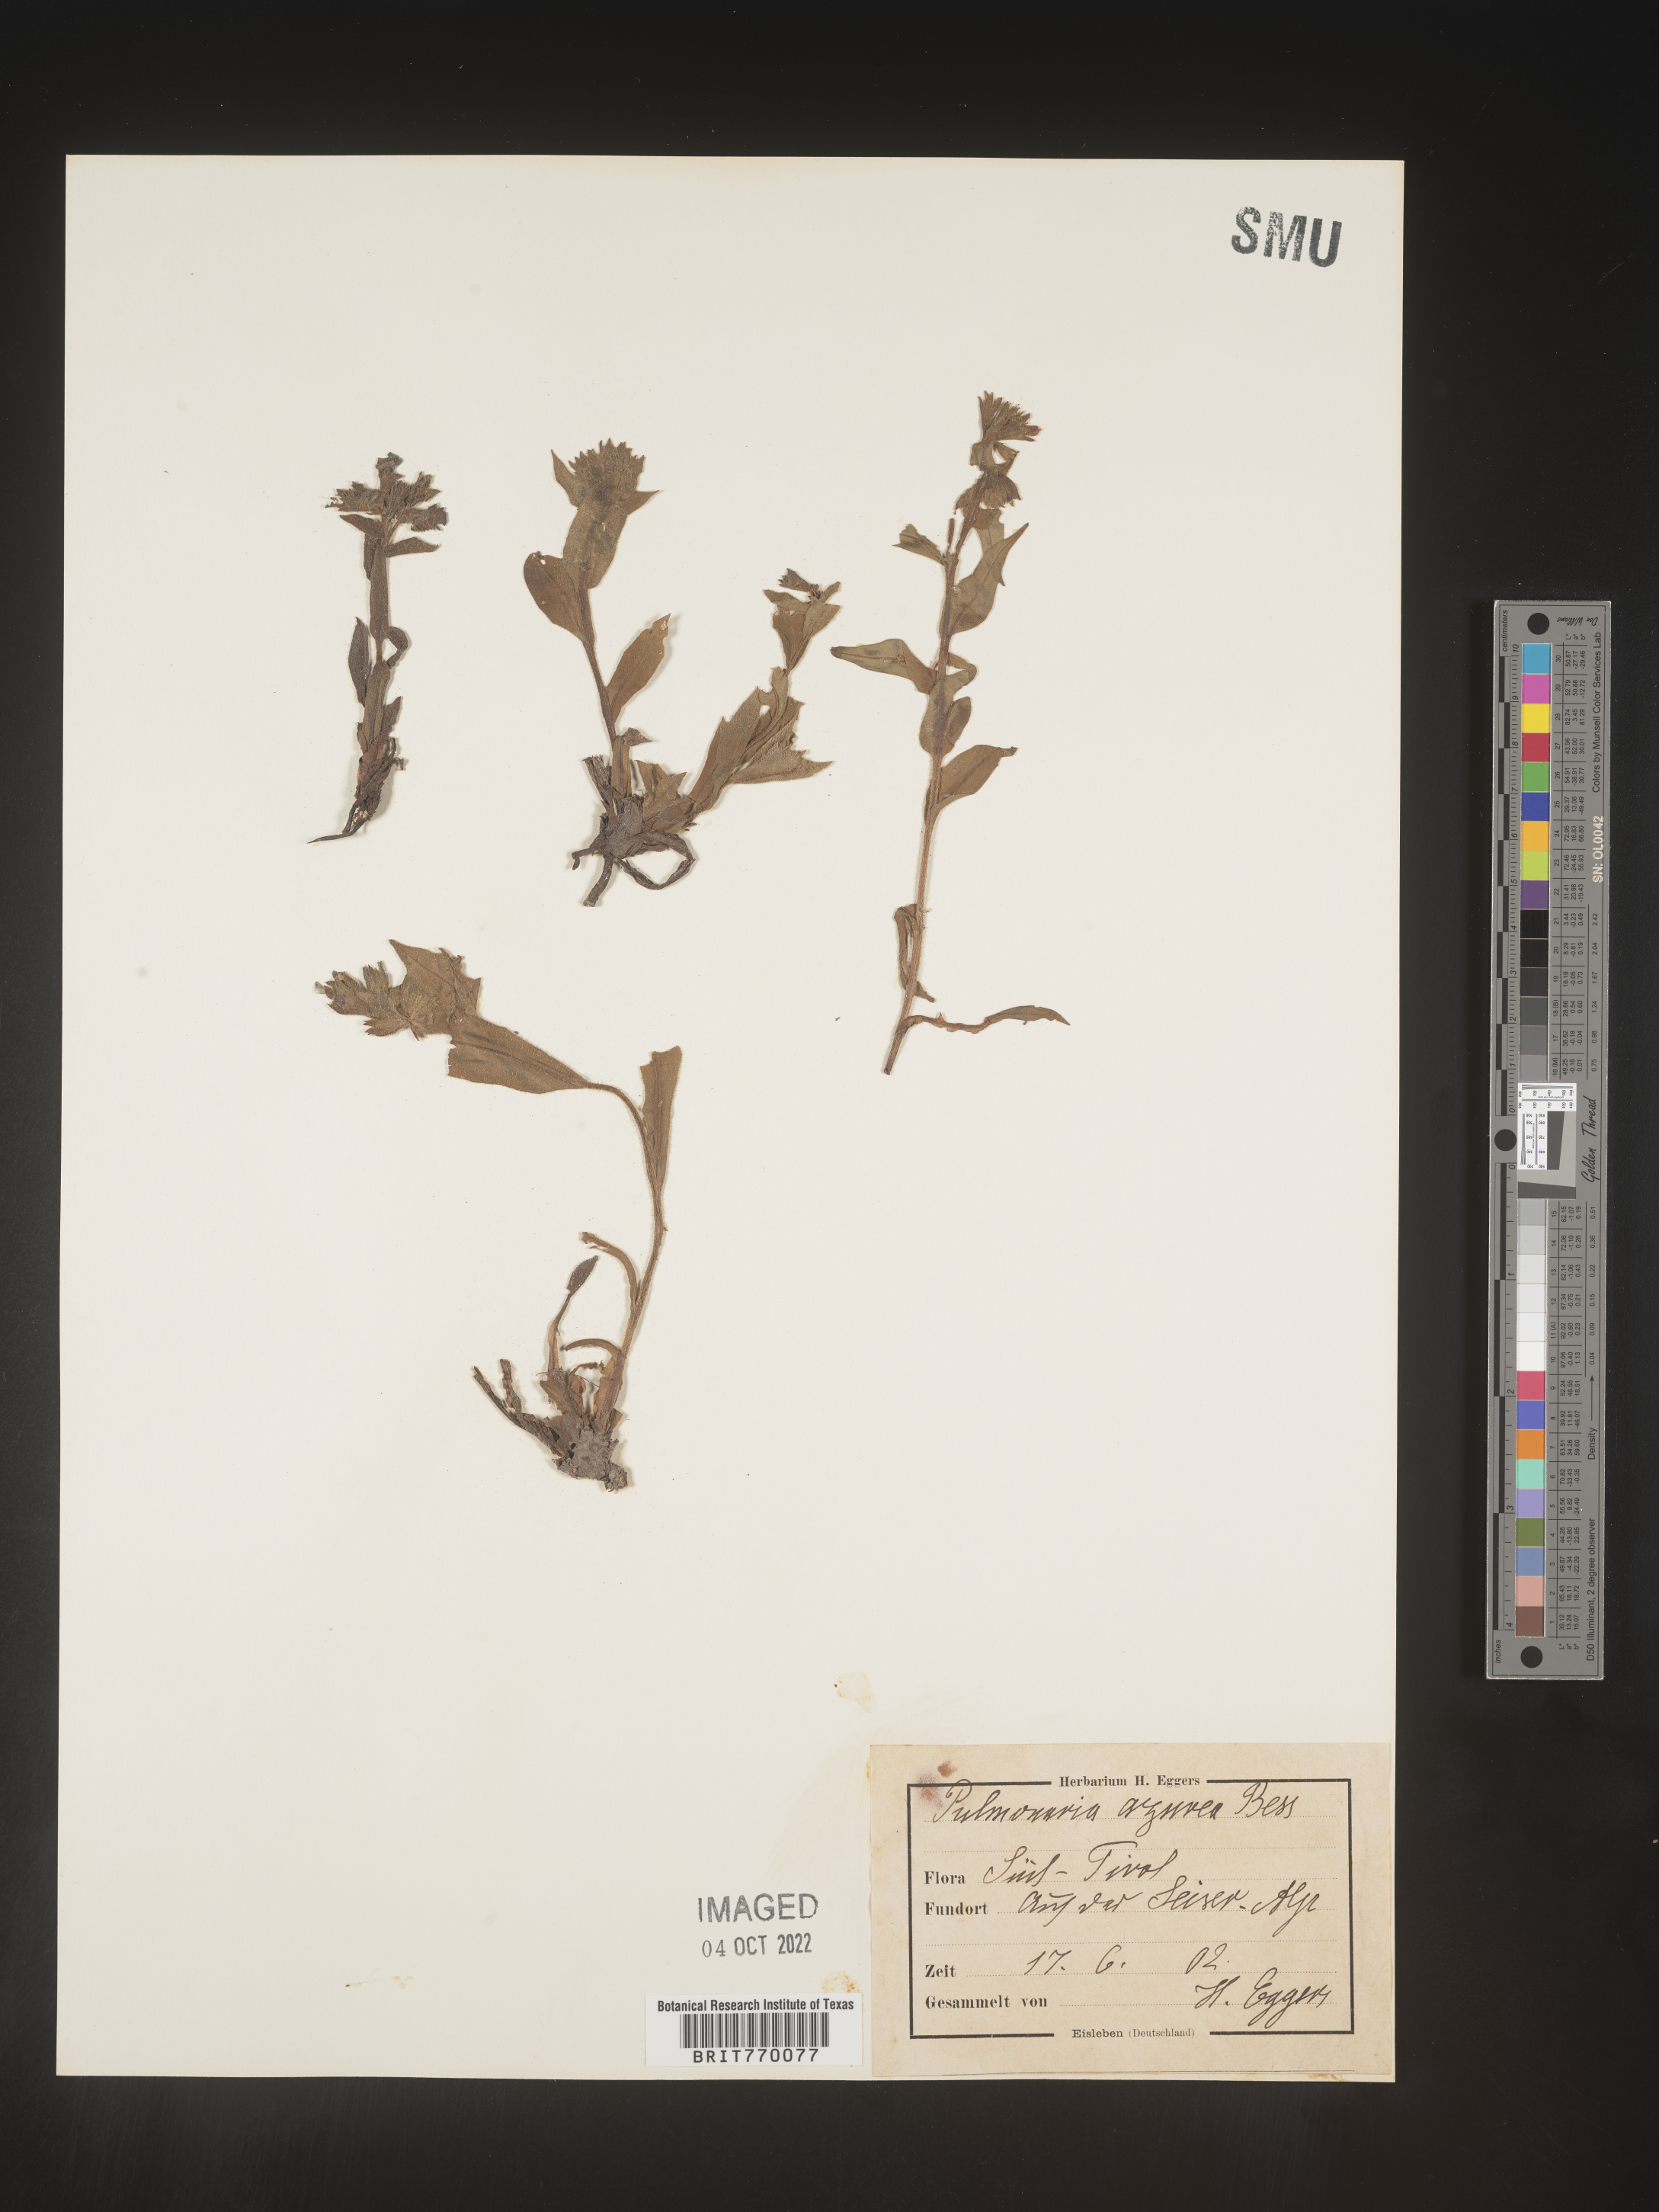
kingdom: Plantae
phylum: Tracheophyta
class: Magnoliopsida
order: Boraginales
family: Boraginaceae
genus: Pulmonaria
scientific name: Pulmonaria
